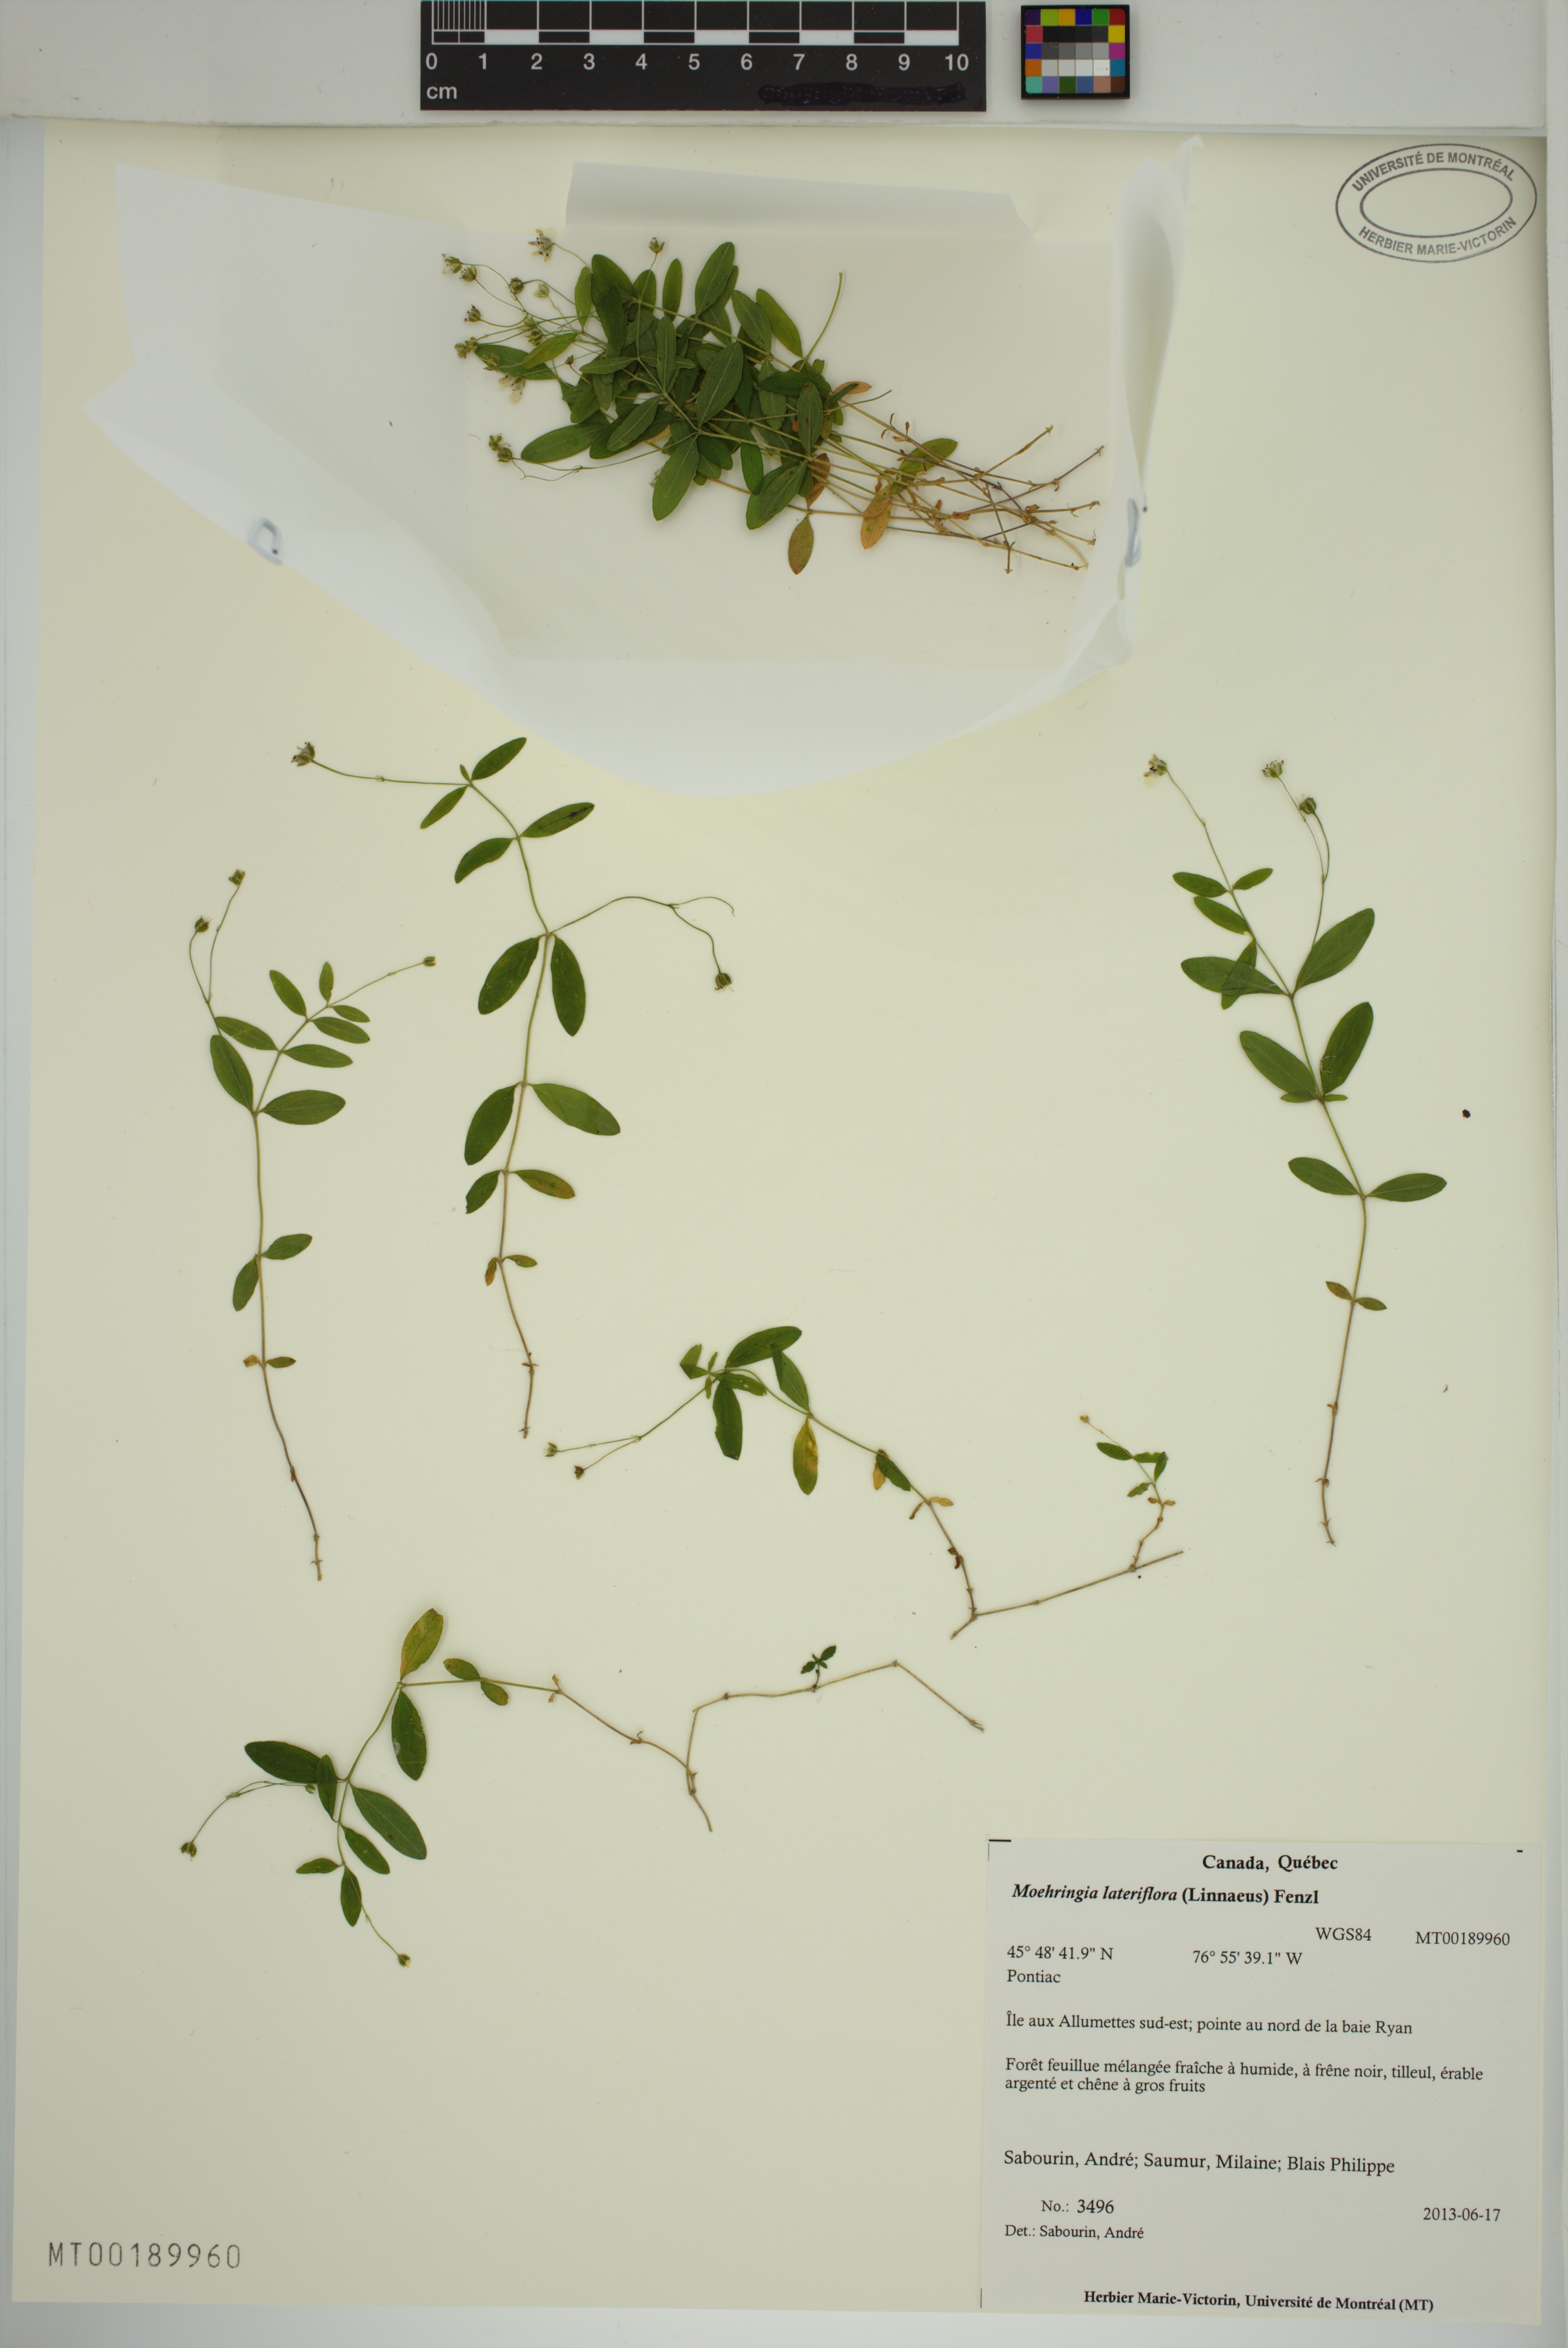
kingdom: Plantae
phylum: Tracheophyta
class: Magnoliopsida
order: Caryophyllales
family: Caryophyllaceae
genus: Moehringia
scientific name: Moehringia lateriflora
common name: Blunt-leaved sandwort
